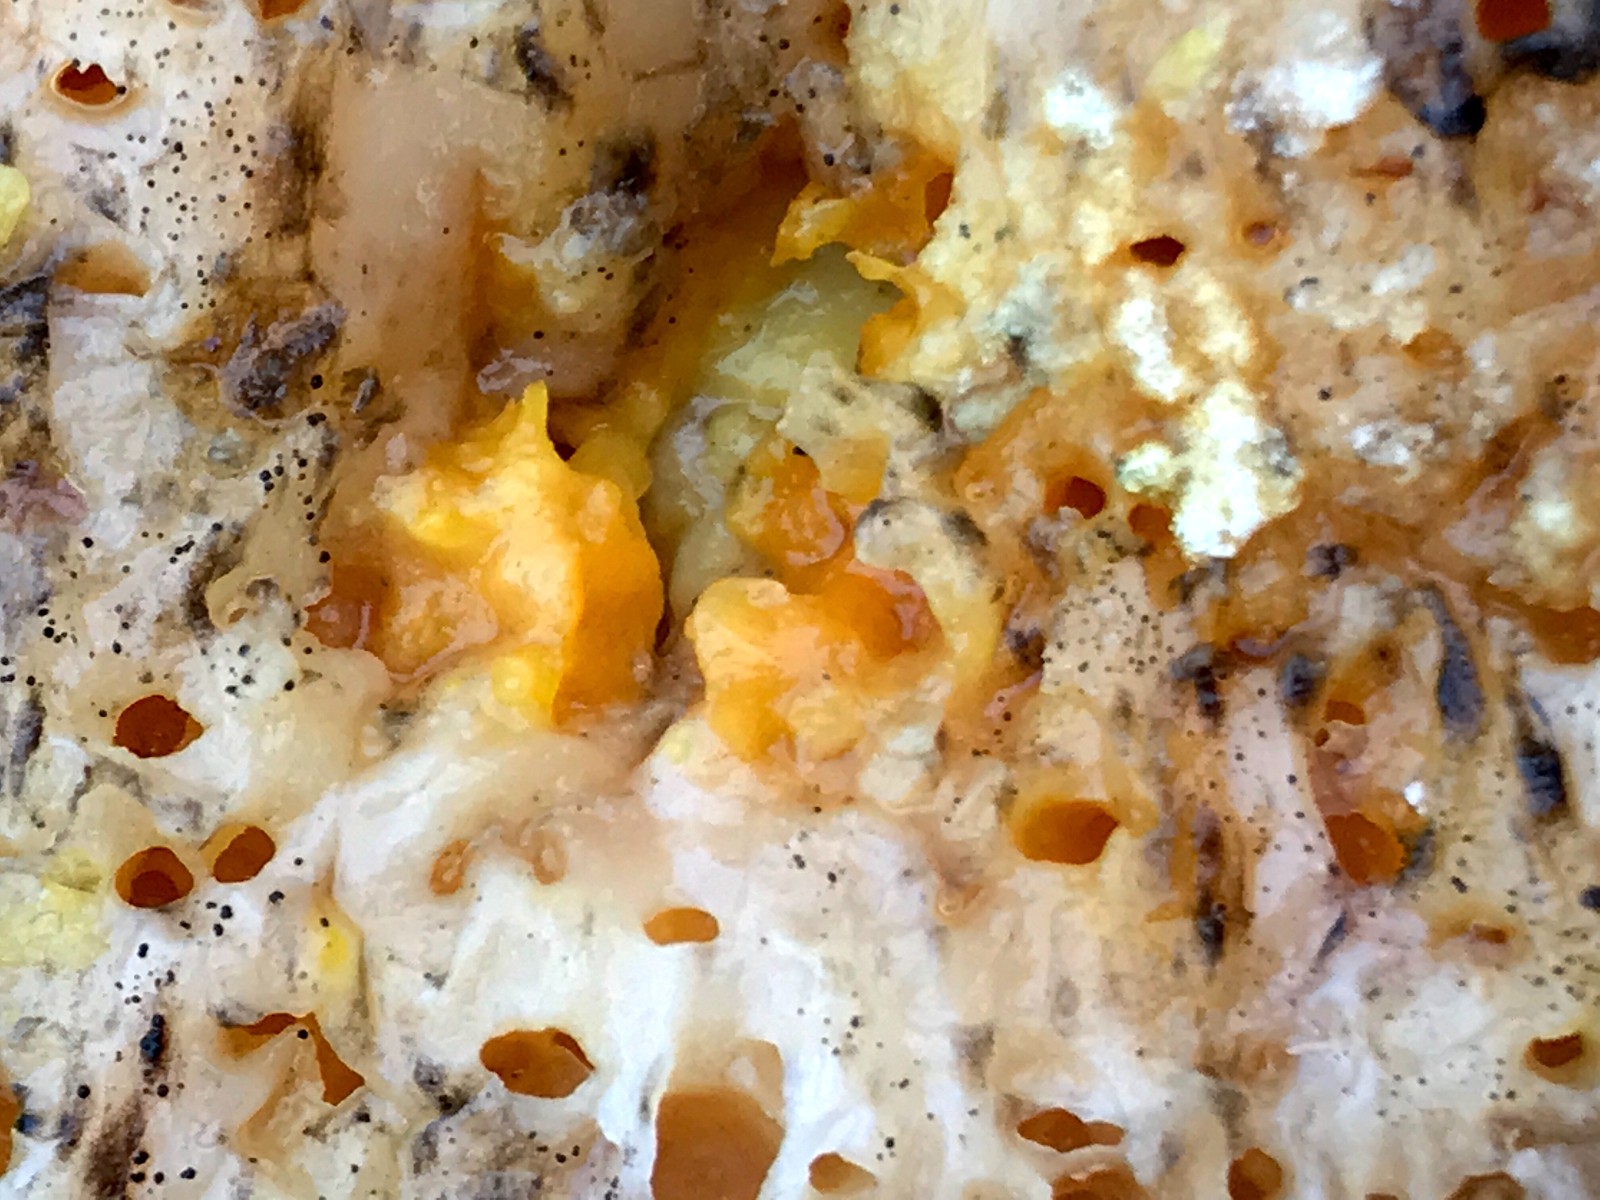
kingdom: Fungi
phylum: Ascomycota
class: Sordariomycetes
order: Hypocreales
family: Hypocreaceae
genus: Hypomyces
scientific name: Hypomyces aurantius
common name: almindelig snylteskorpe
